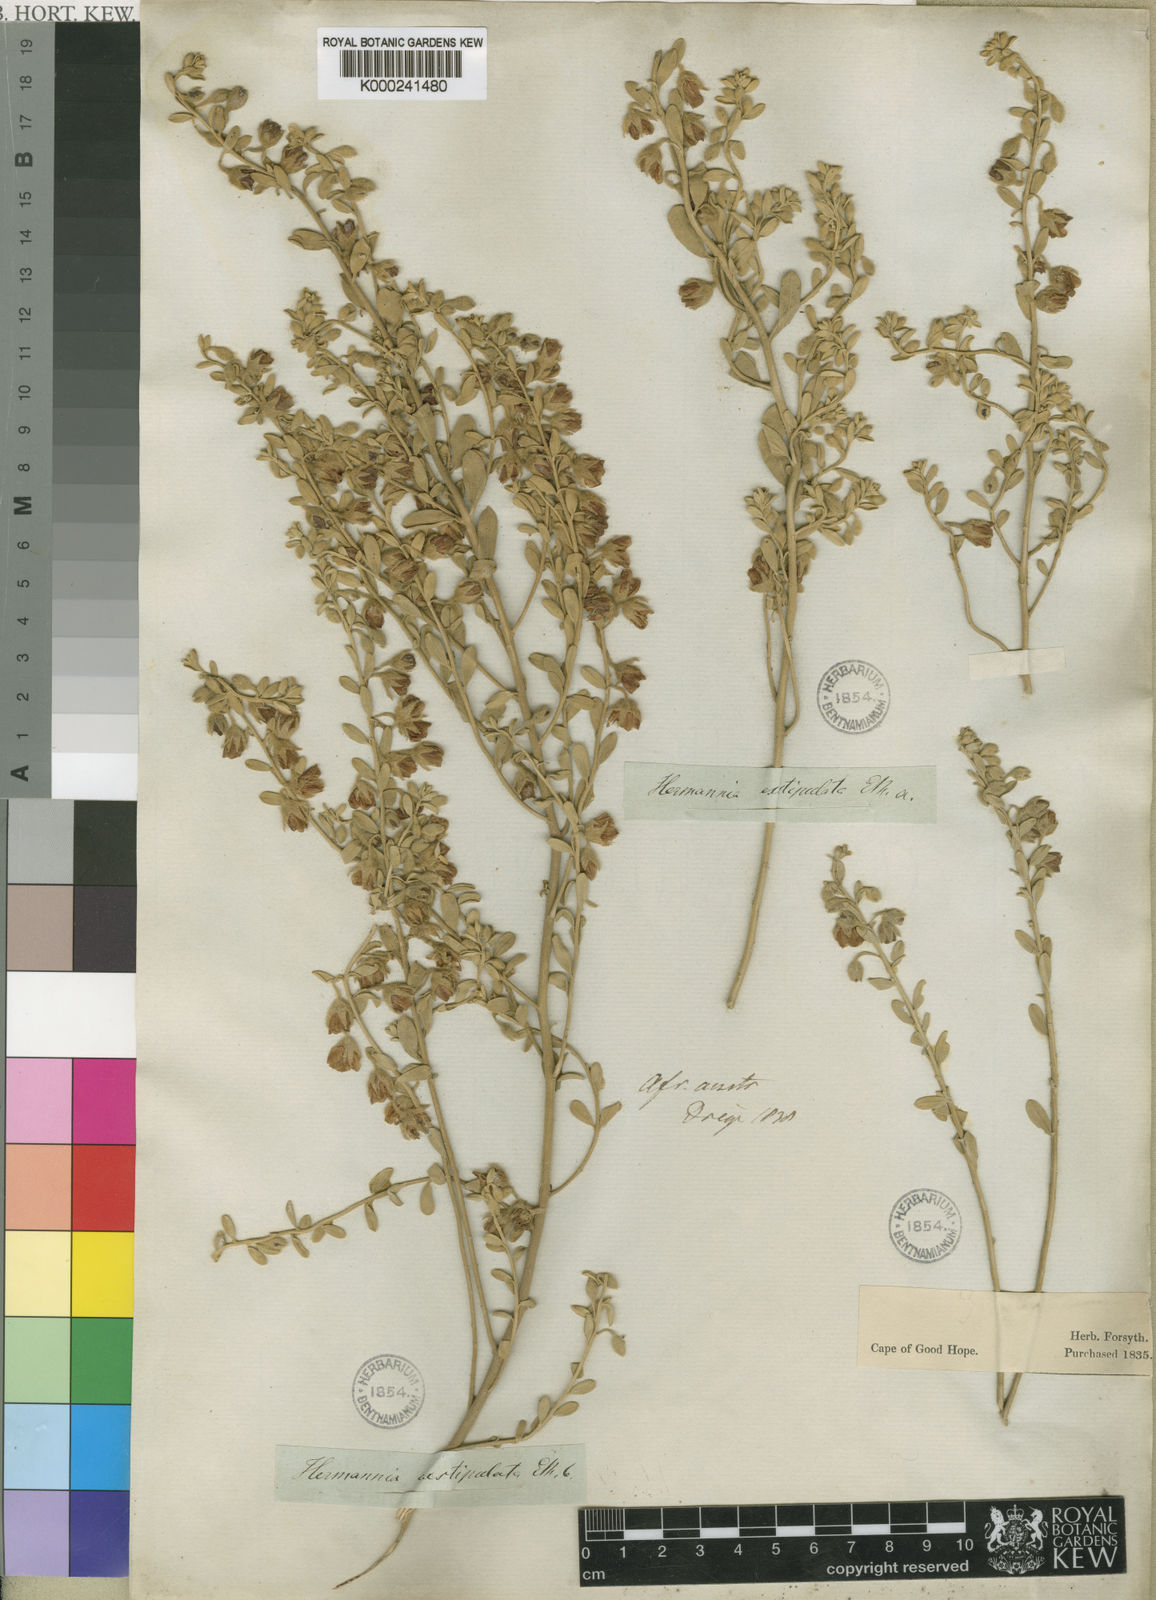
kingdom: Plantae
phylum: Tracheophyta
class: Magnoliopsida
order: Malvales
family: Malvaceae
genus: Hermannia
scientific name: Hermannia
